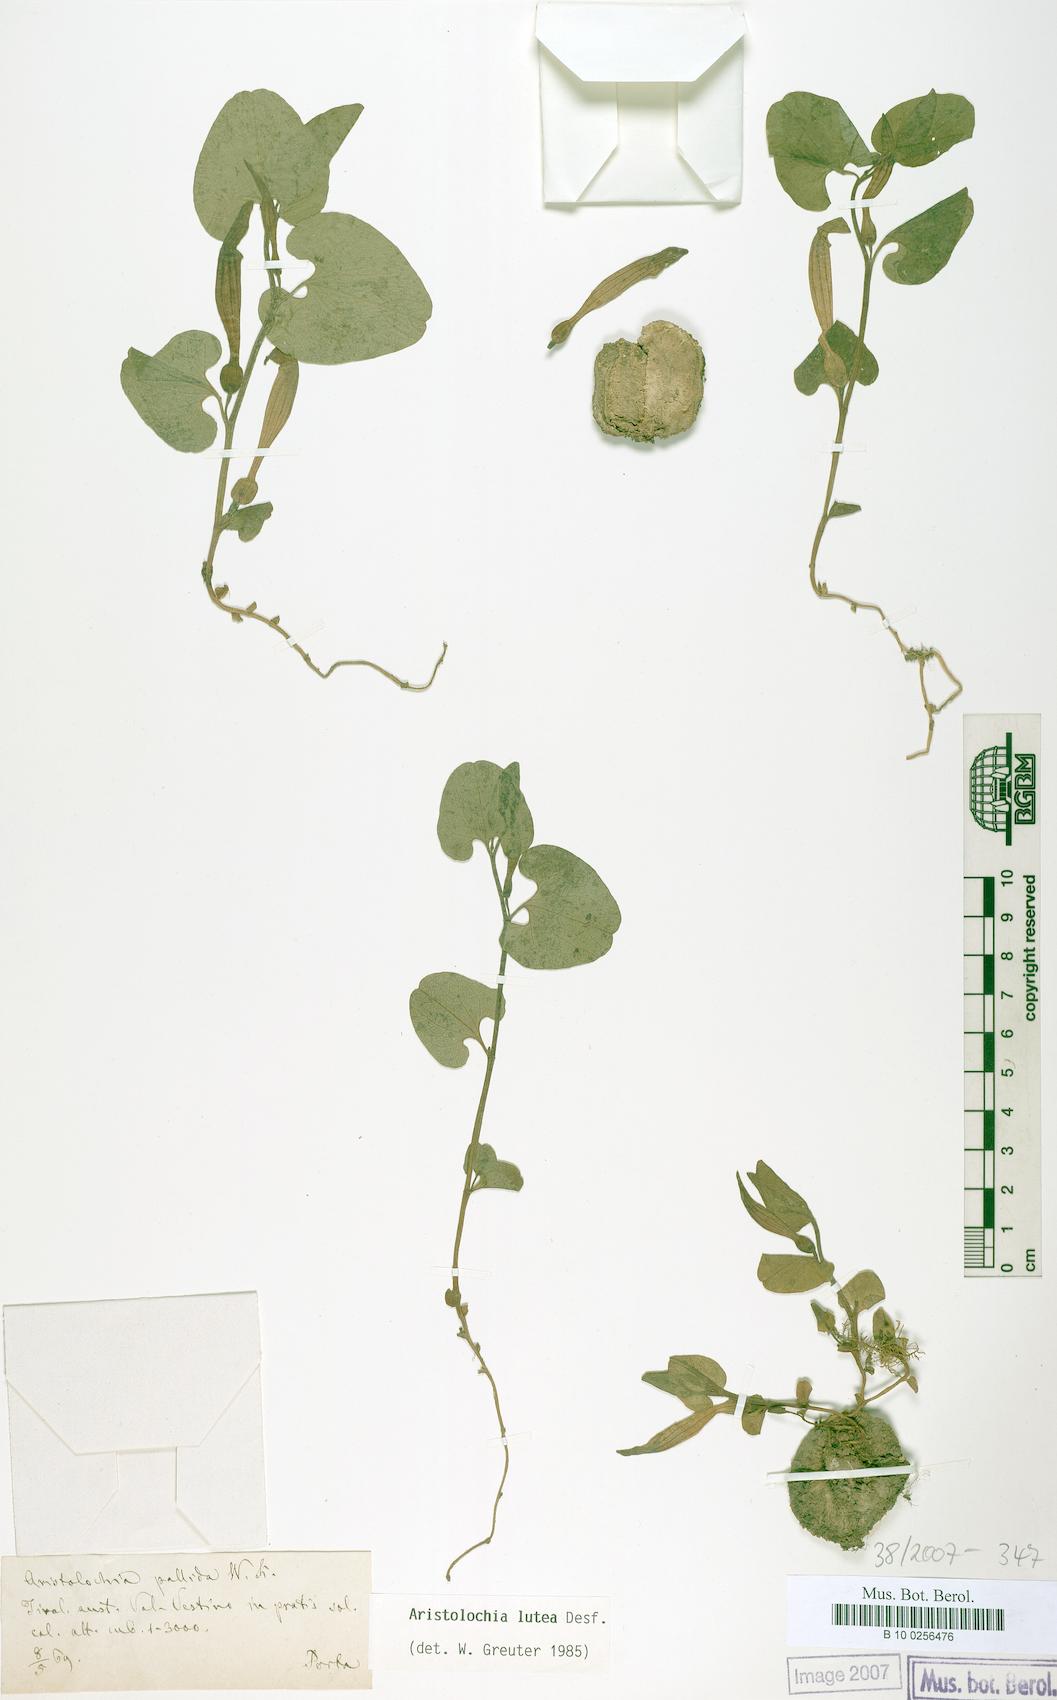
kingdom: Plantae
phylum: Tracheophyta
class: Magnoliopsida
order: Piperales
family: Aristolochiaceae
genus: Aristolochia
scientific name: Aristolochia lutea
